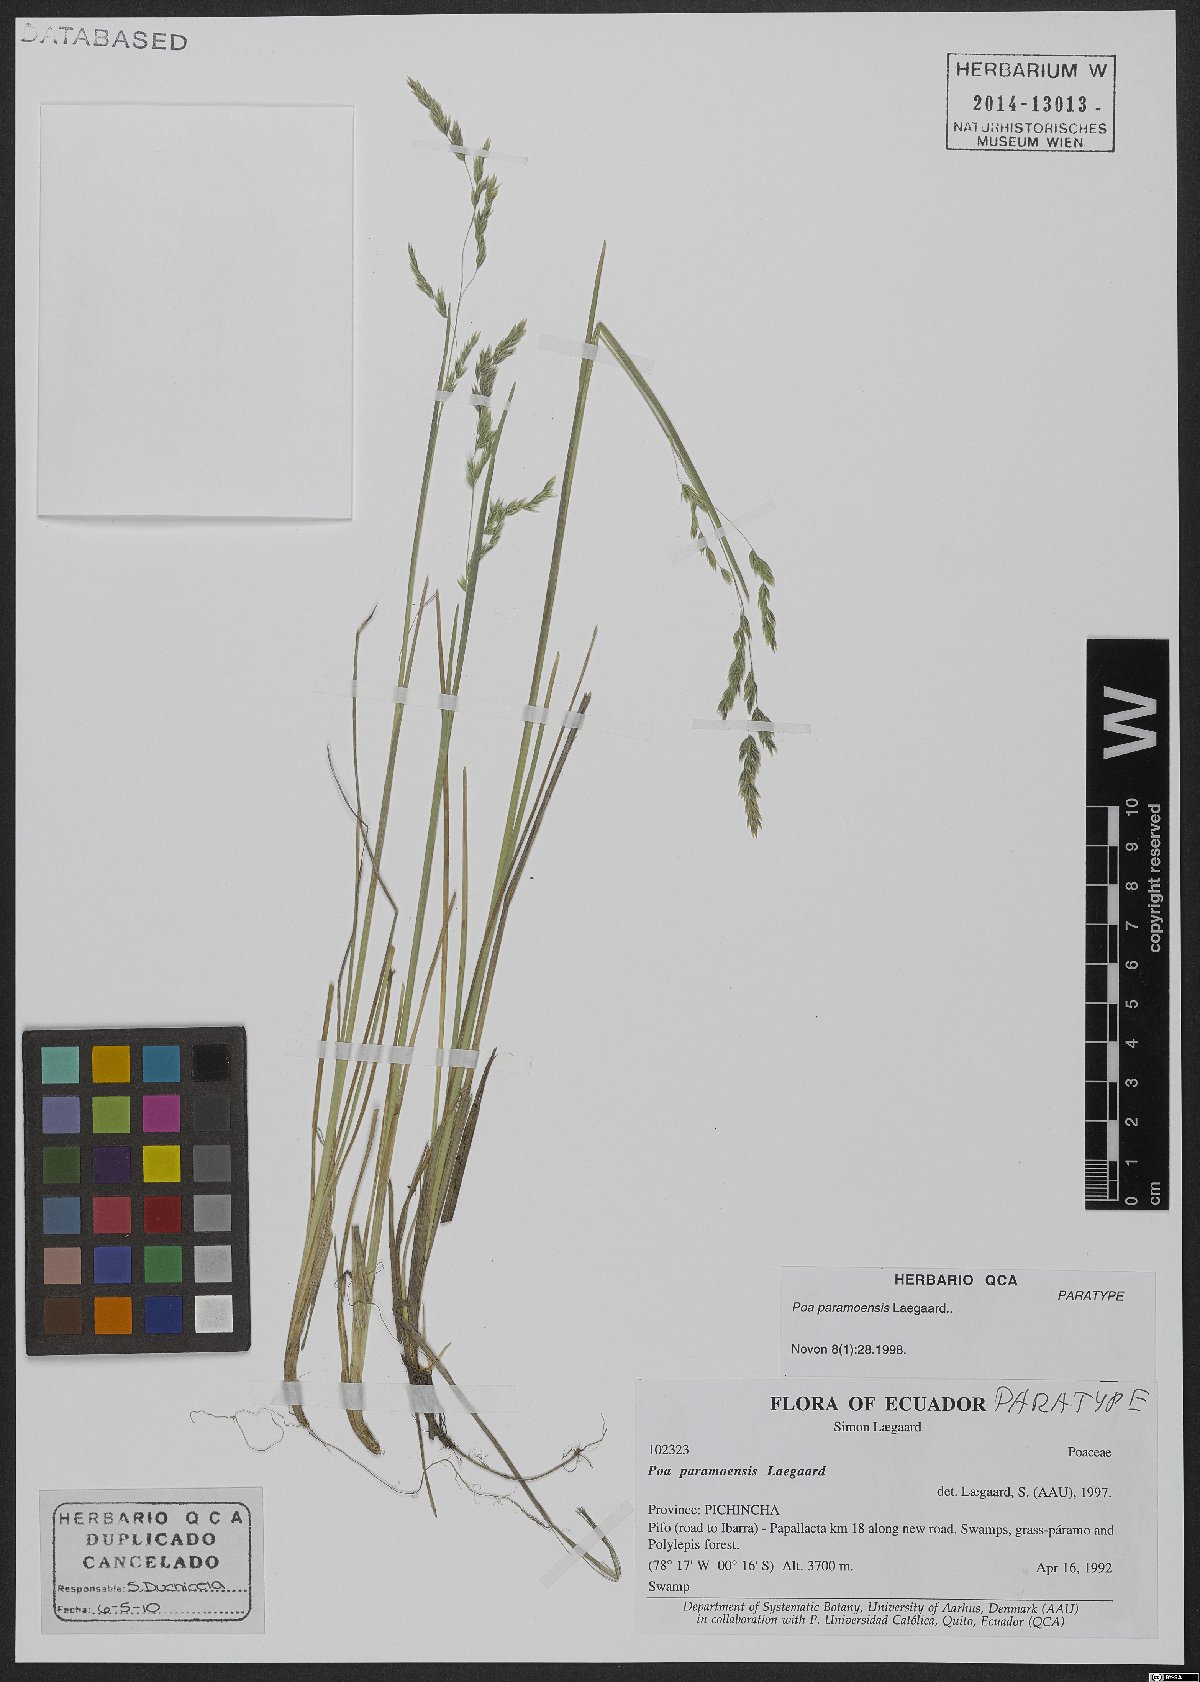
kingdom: Plantae
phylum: Tracheophyta
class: Liliopsida
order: Poales
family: Poaceae
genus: Poa
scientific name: Poa huancavelicae
